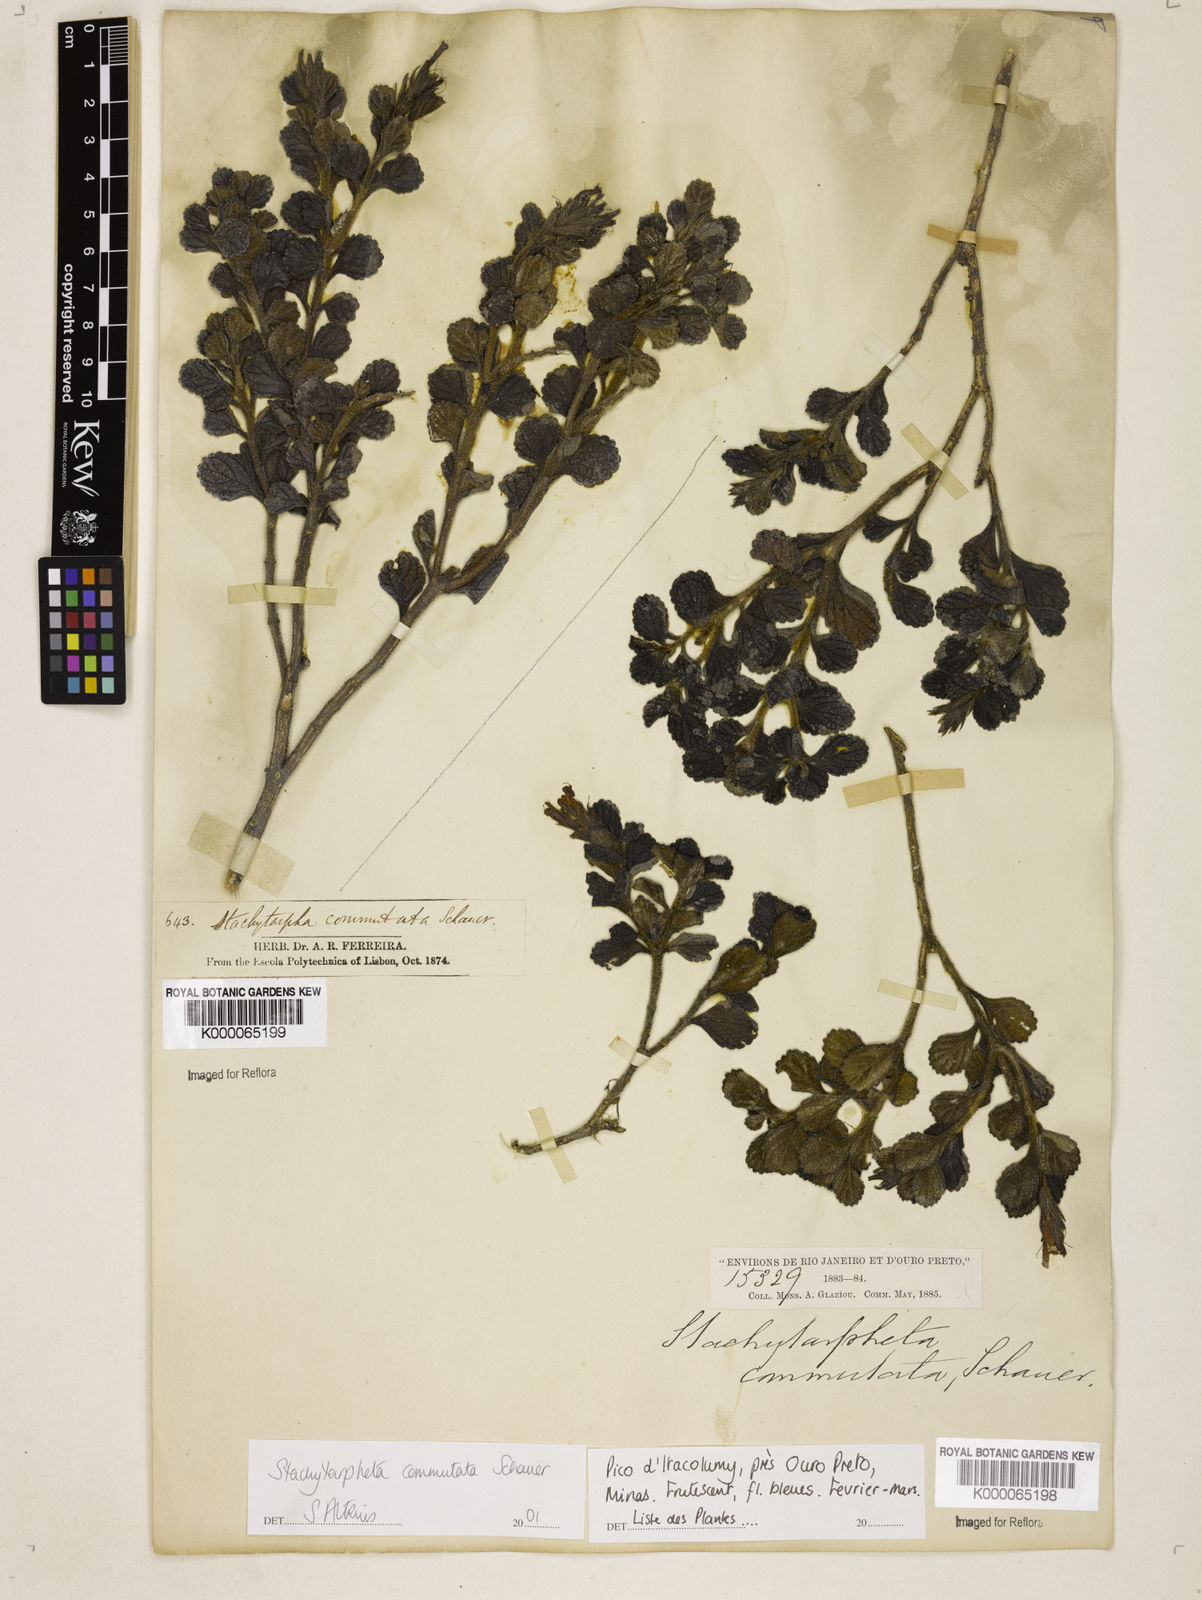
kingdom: Plantae
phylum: Tracheophyta
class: Magnoliopsida
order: Lamiales
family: Verbenaceae
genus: Stachytarpheta
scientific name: Stachytarpheta commutata
